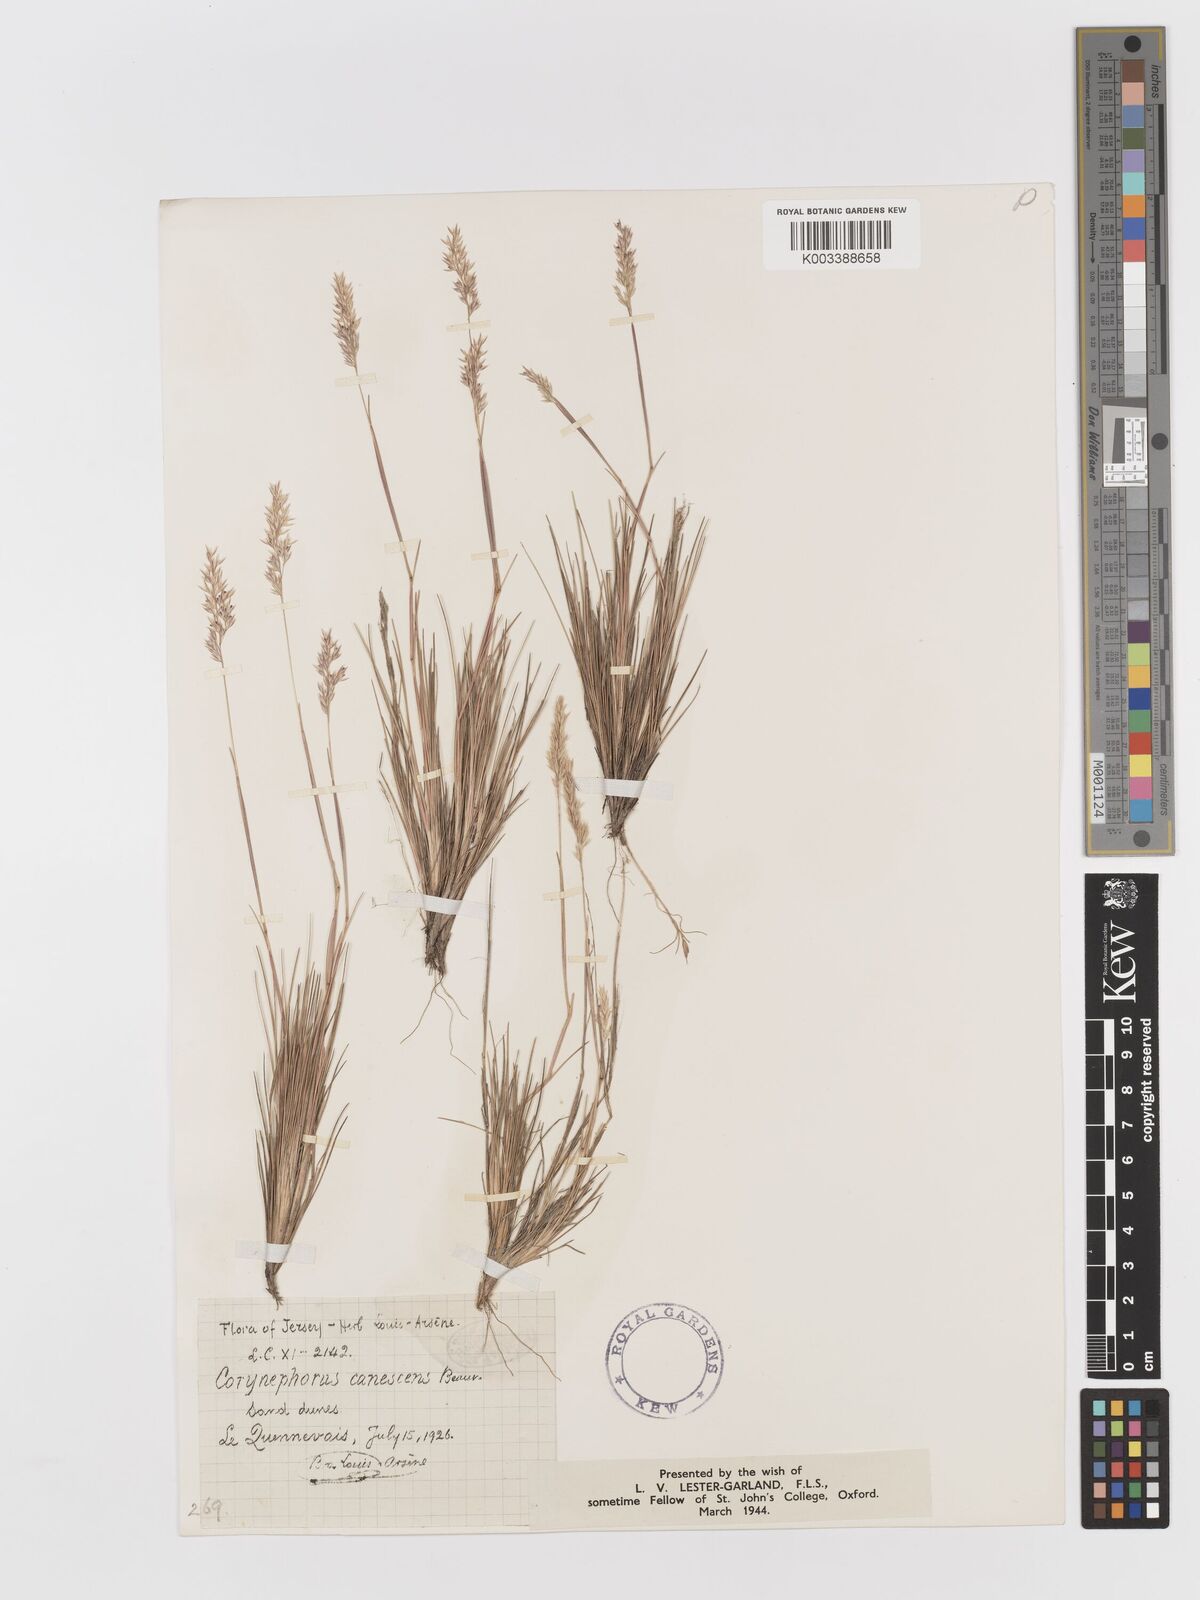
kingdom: Plantae
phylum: Tracheophyta
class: Liliopsida
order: Poales
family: Poaceae
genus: Corynephorus
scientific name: Corynephorus canescens
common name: Grey hair-grass
